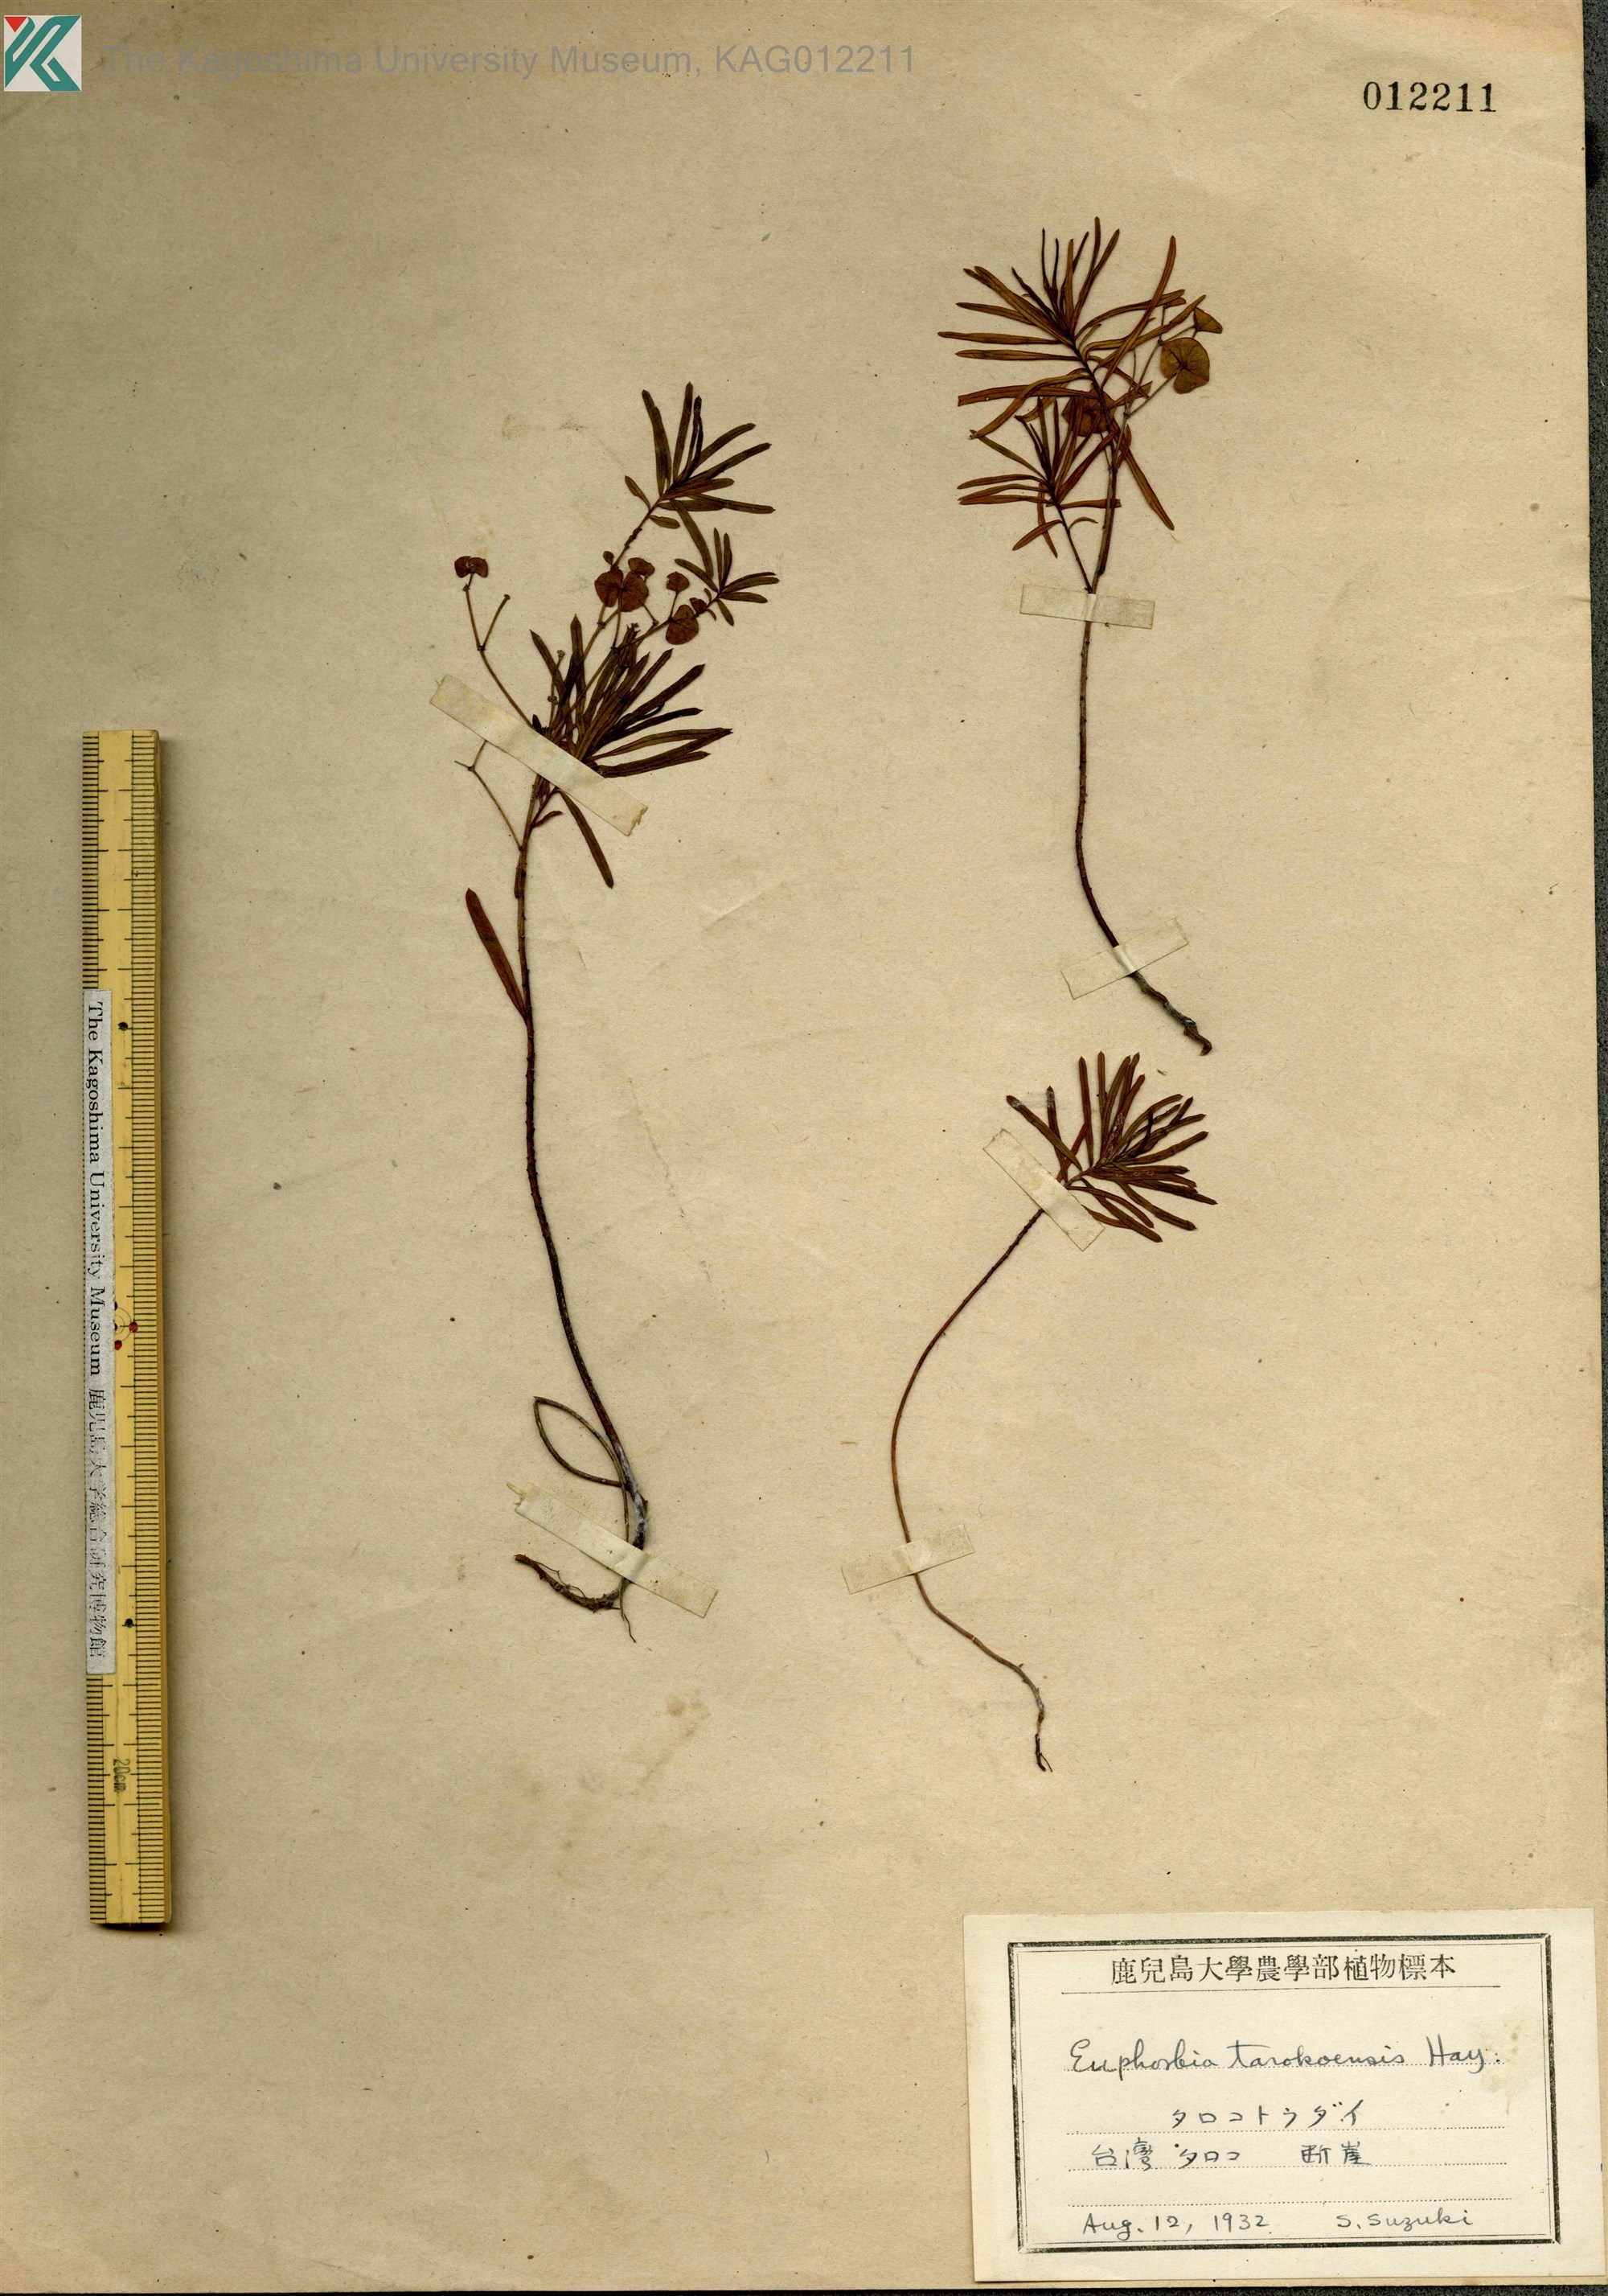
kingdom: Plantae
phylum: Tracheophyta
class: Magnoliopsida
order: Malpighiales
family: Euphorbiaceae
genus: Euphorbia
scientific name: Euphorbia tarokoensis
